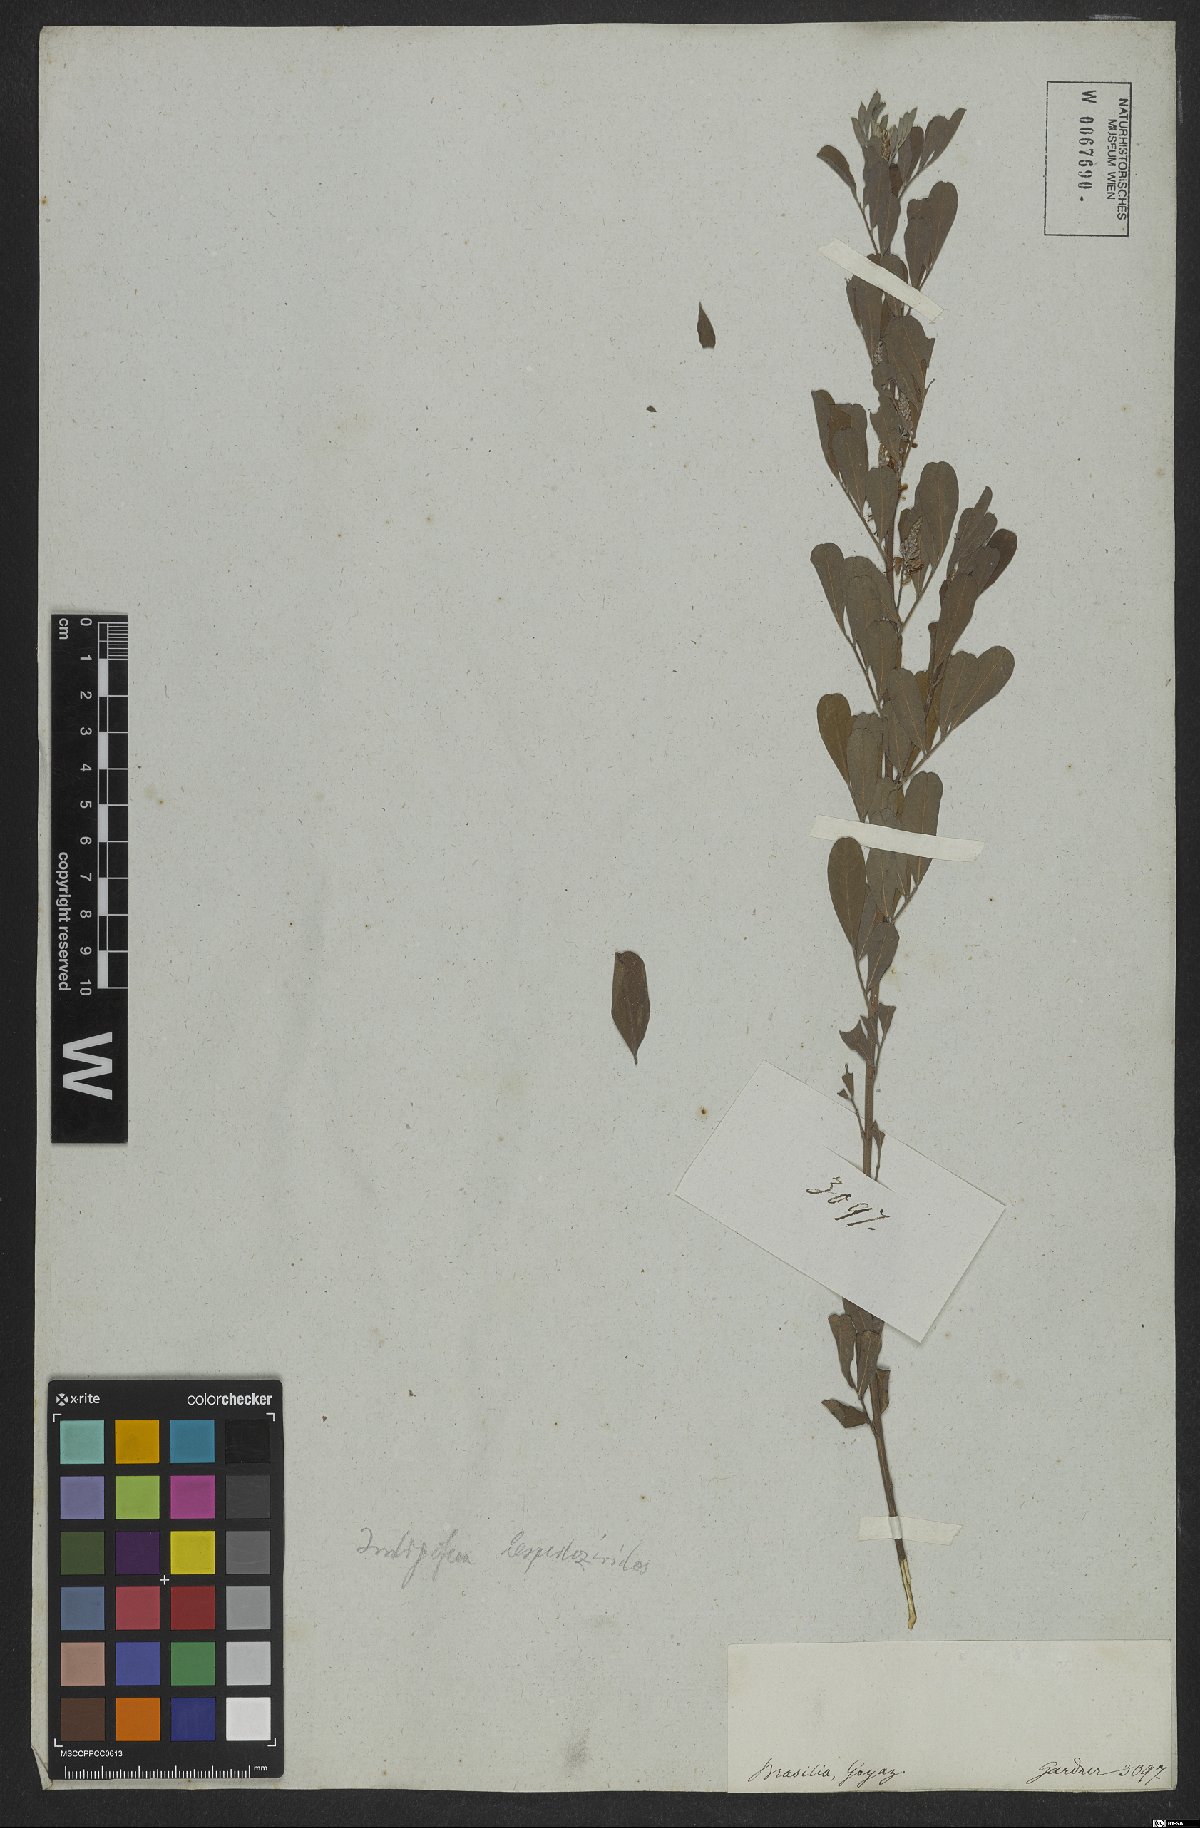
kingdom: Plantae
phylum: Tracheophyta
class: Magnoliopsida
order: Fabales
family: Fabaceae
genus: Indigofera
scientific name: Indigofera lespedezioides
